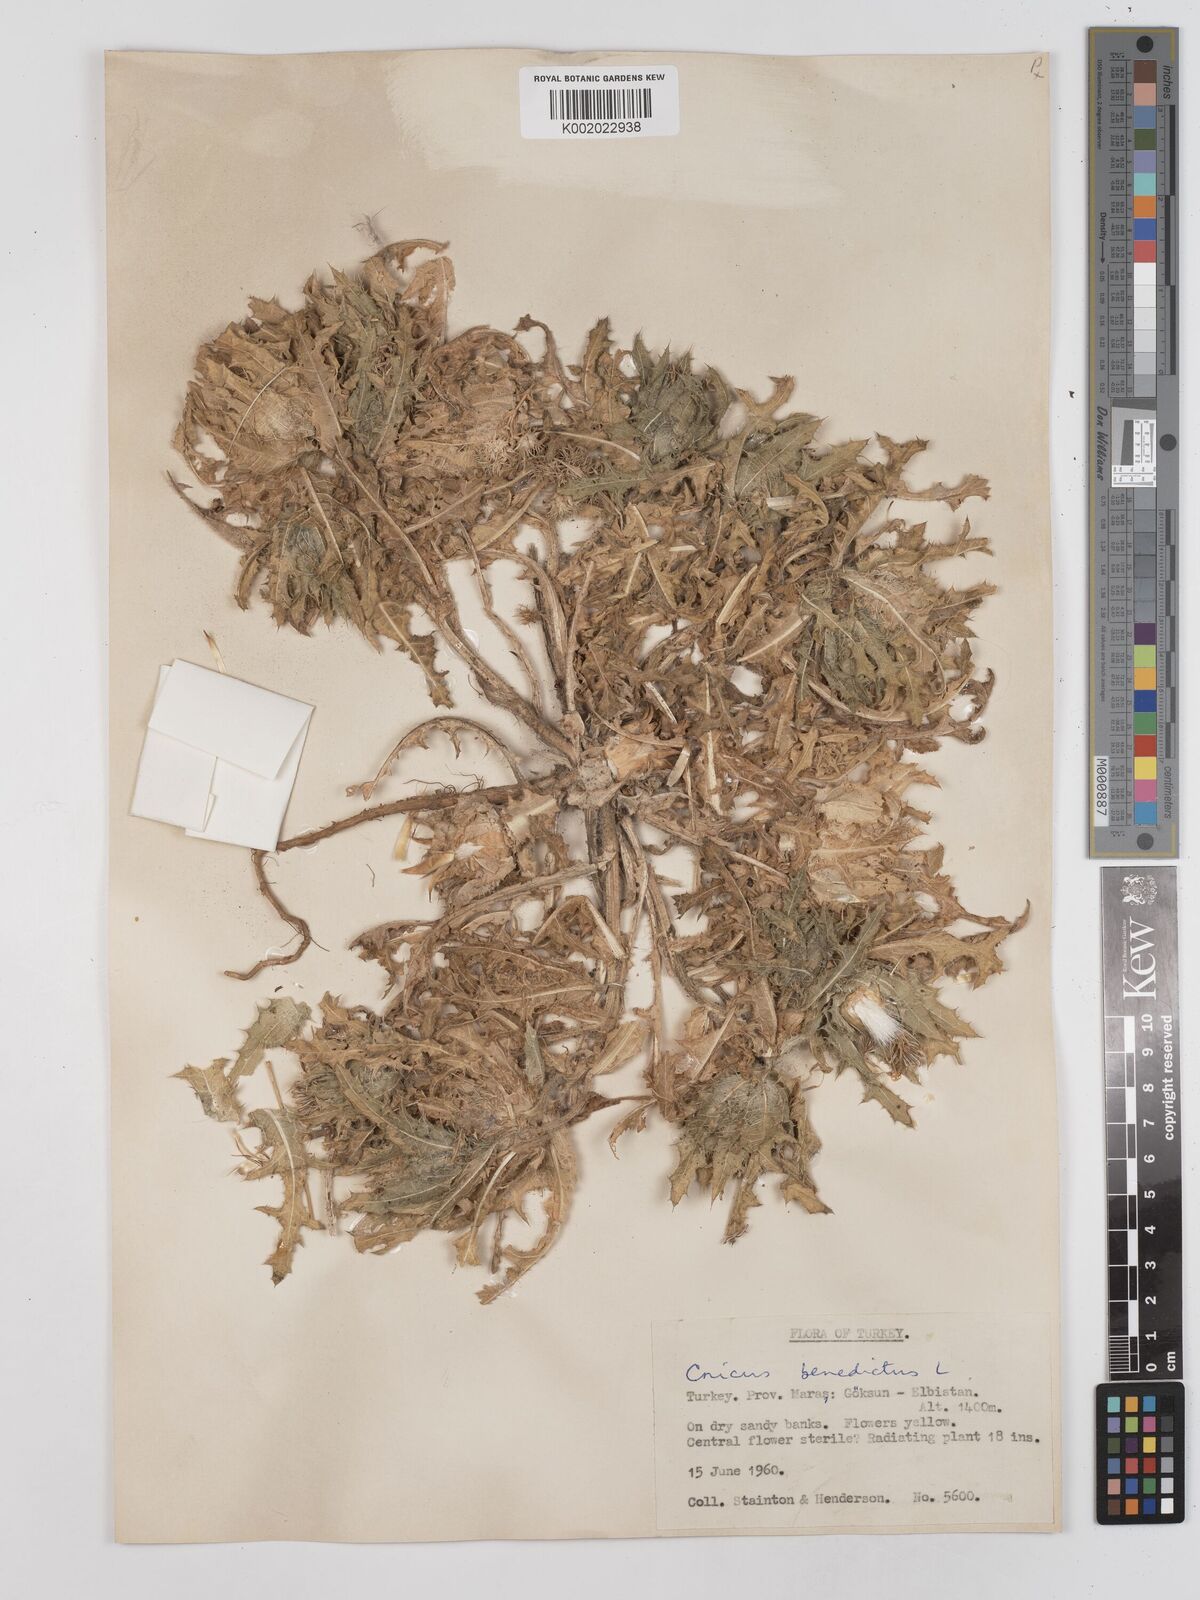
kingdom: Plantae
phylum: Tracheophyta
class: Magnoliopsida
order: Asterales
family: Asteraceae
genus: Centaurea
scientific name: Centaurea benedicta
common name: Blessed thistle
